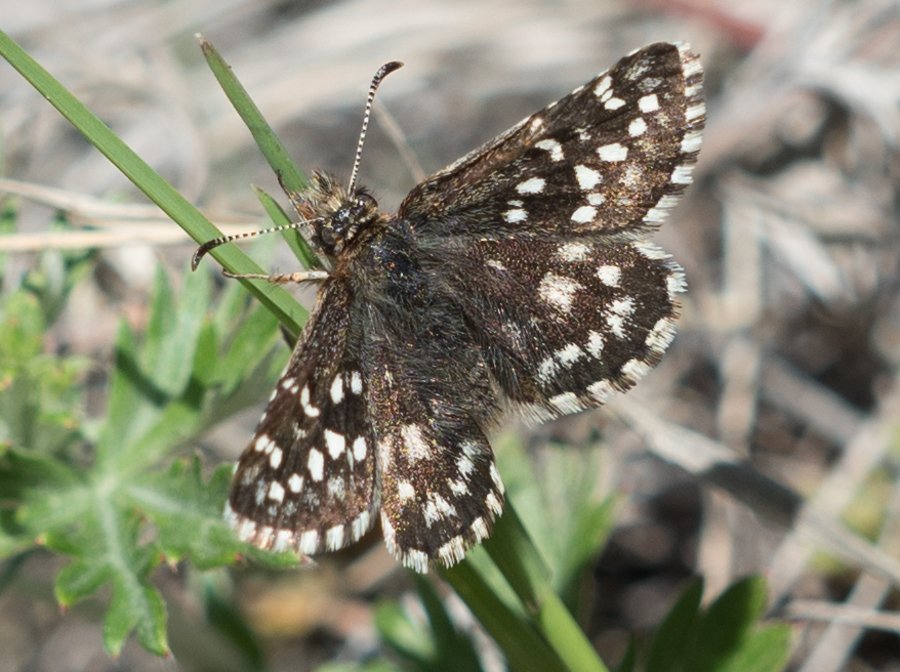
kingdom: Animalia
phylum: Arthropoda
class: Insecta
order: Lepidoptera
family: Hesperiidae
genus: Pyrgus
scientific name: Pyrgus ruralis
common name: Two-banded Checkered-Skipper
